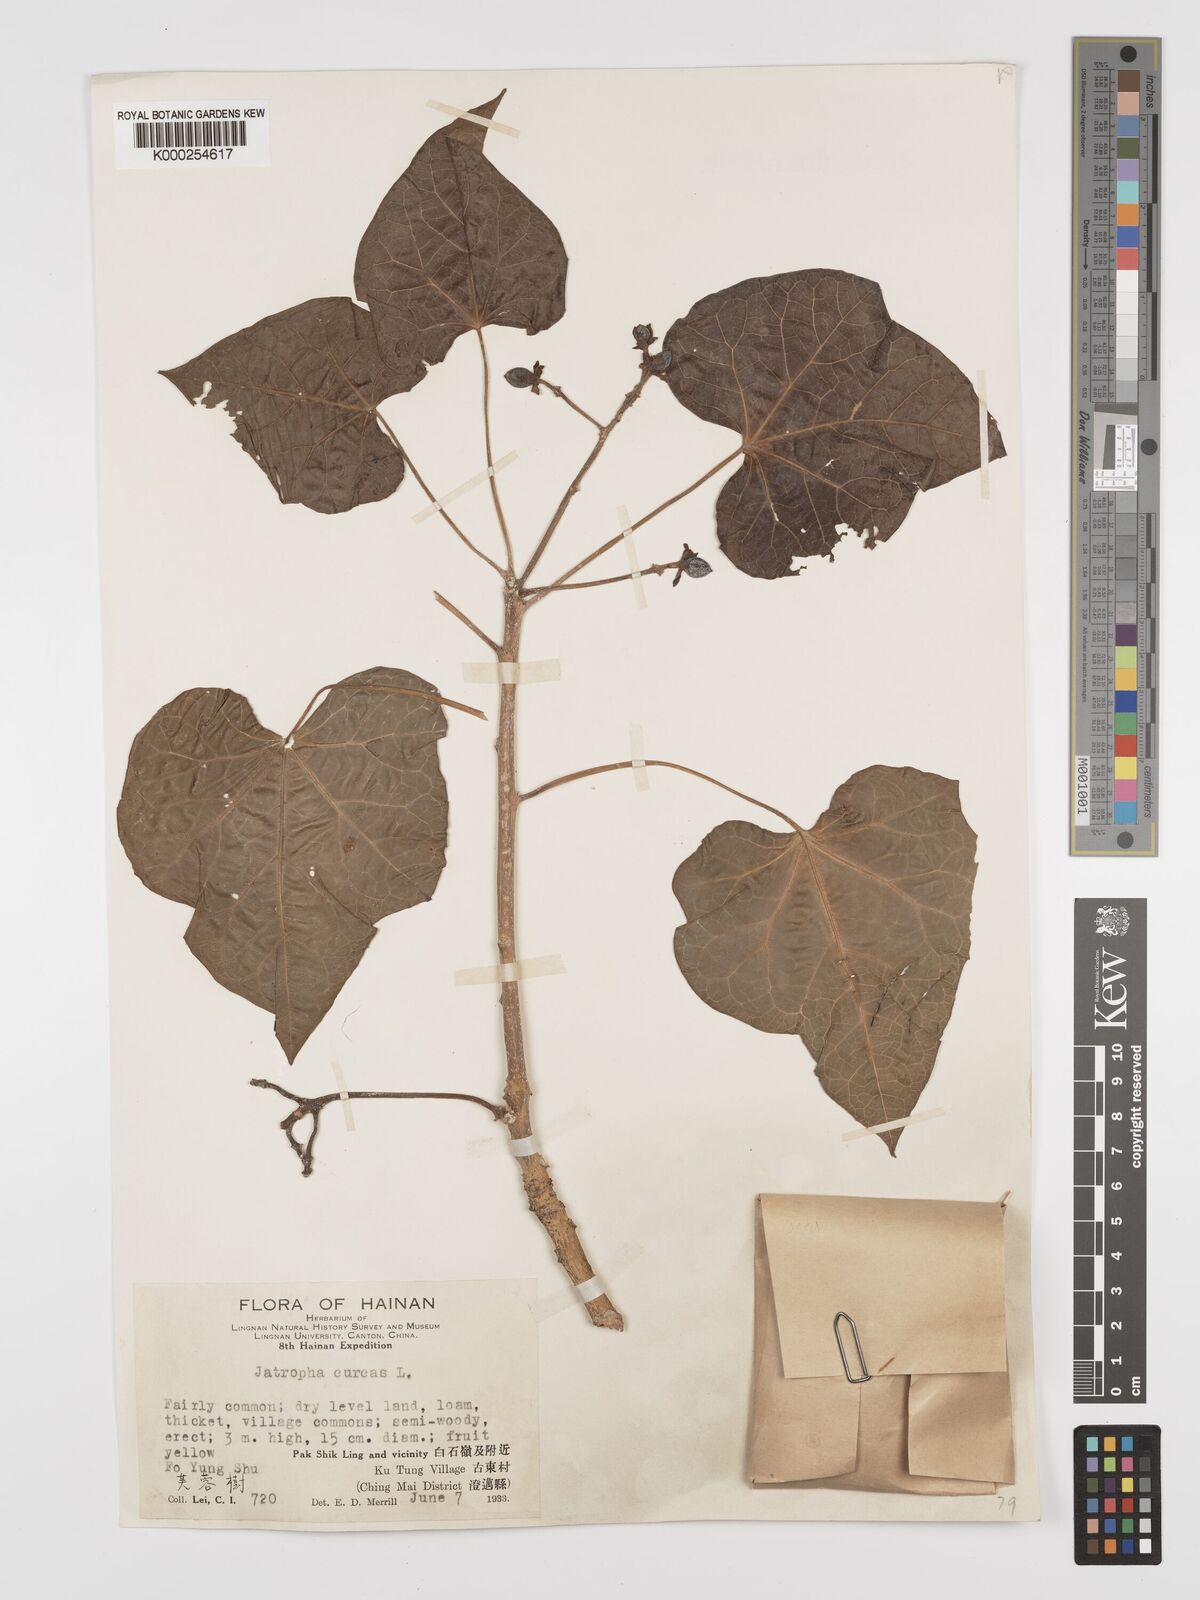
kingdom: Plantae
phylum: Tracheophyta
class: Magnoliopsida
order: Malpighiales
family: Euphorbiaceae
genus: Jatropha
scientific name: Jatropha curcas
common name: Barbados nut
